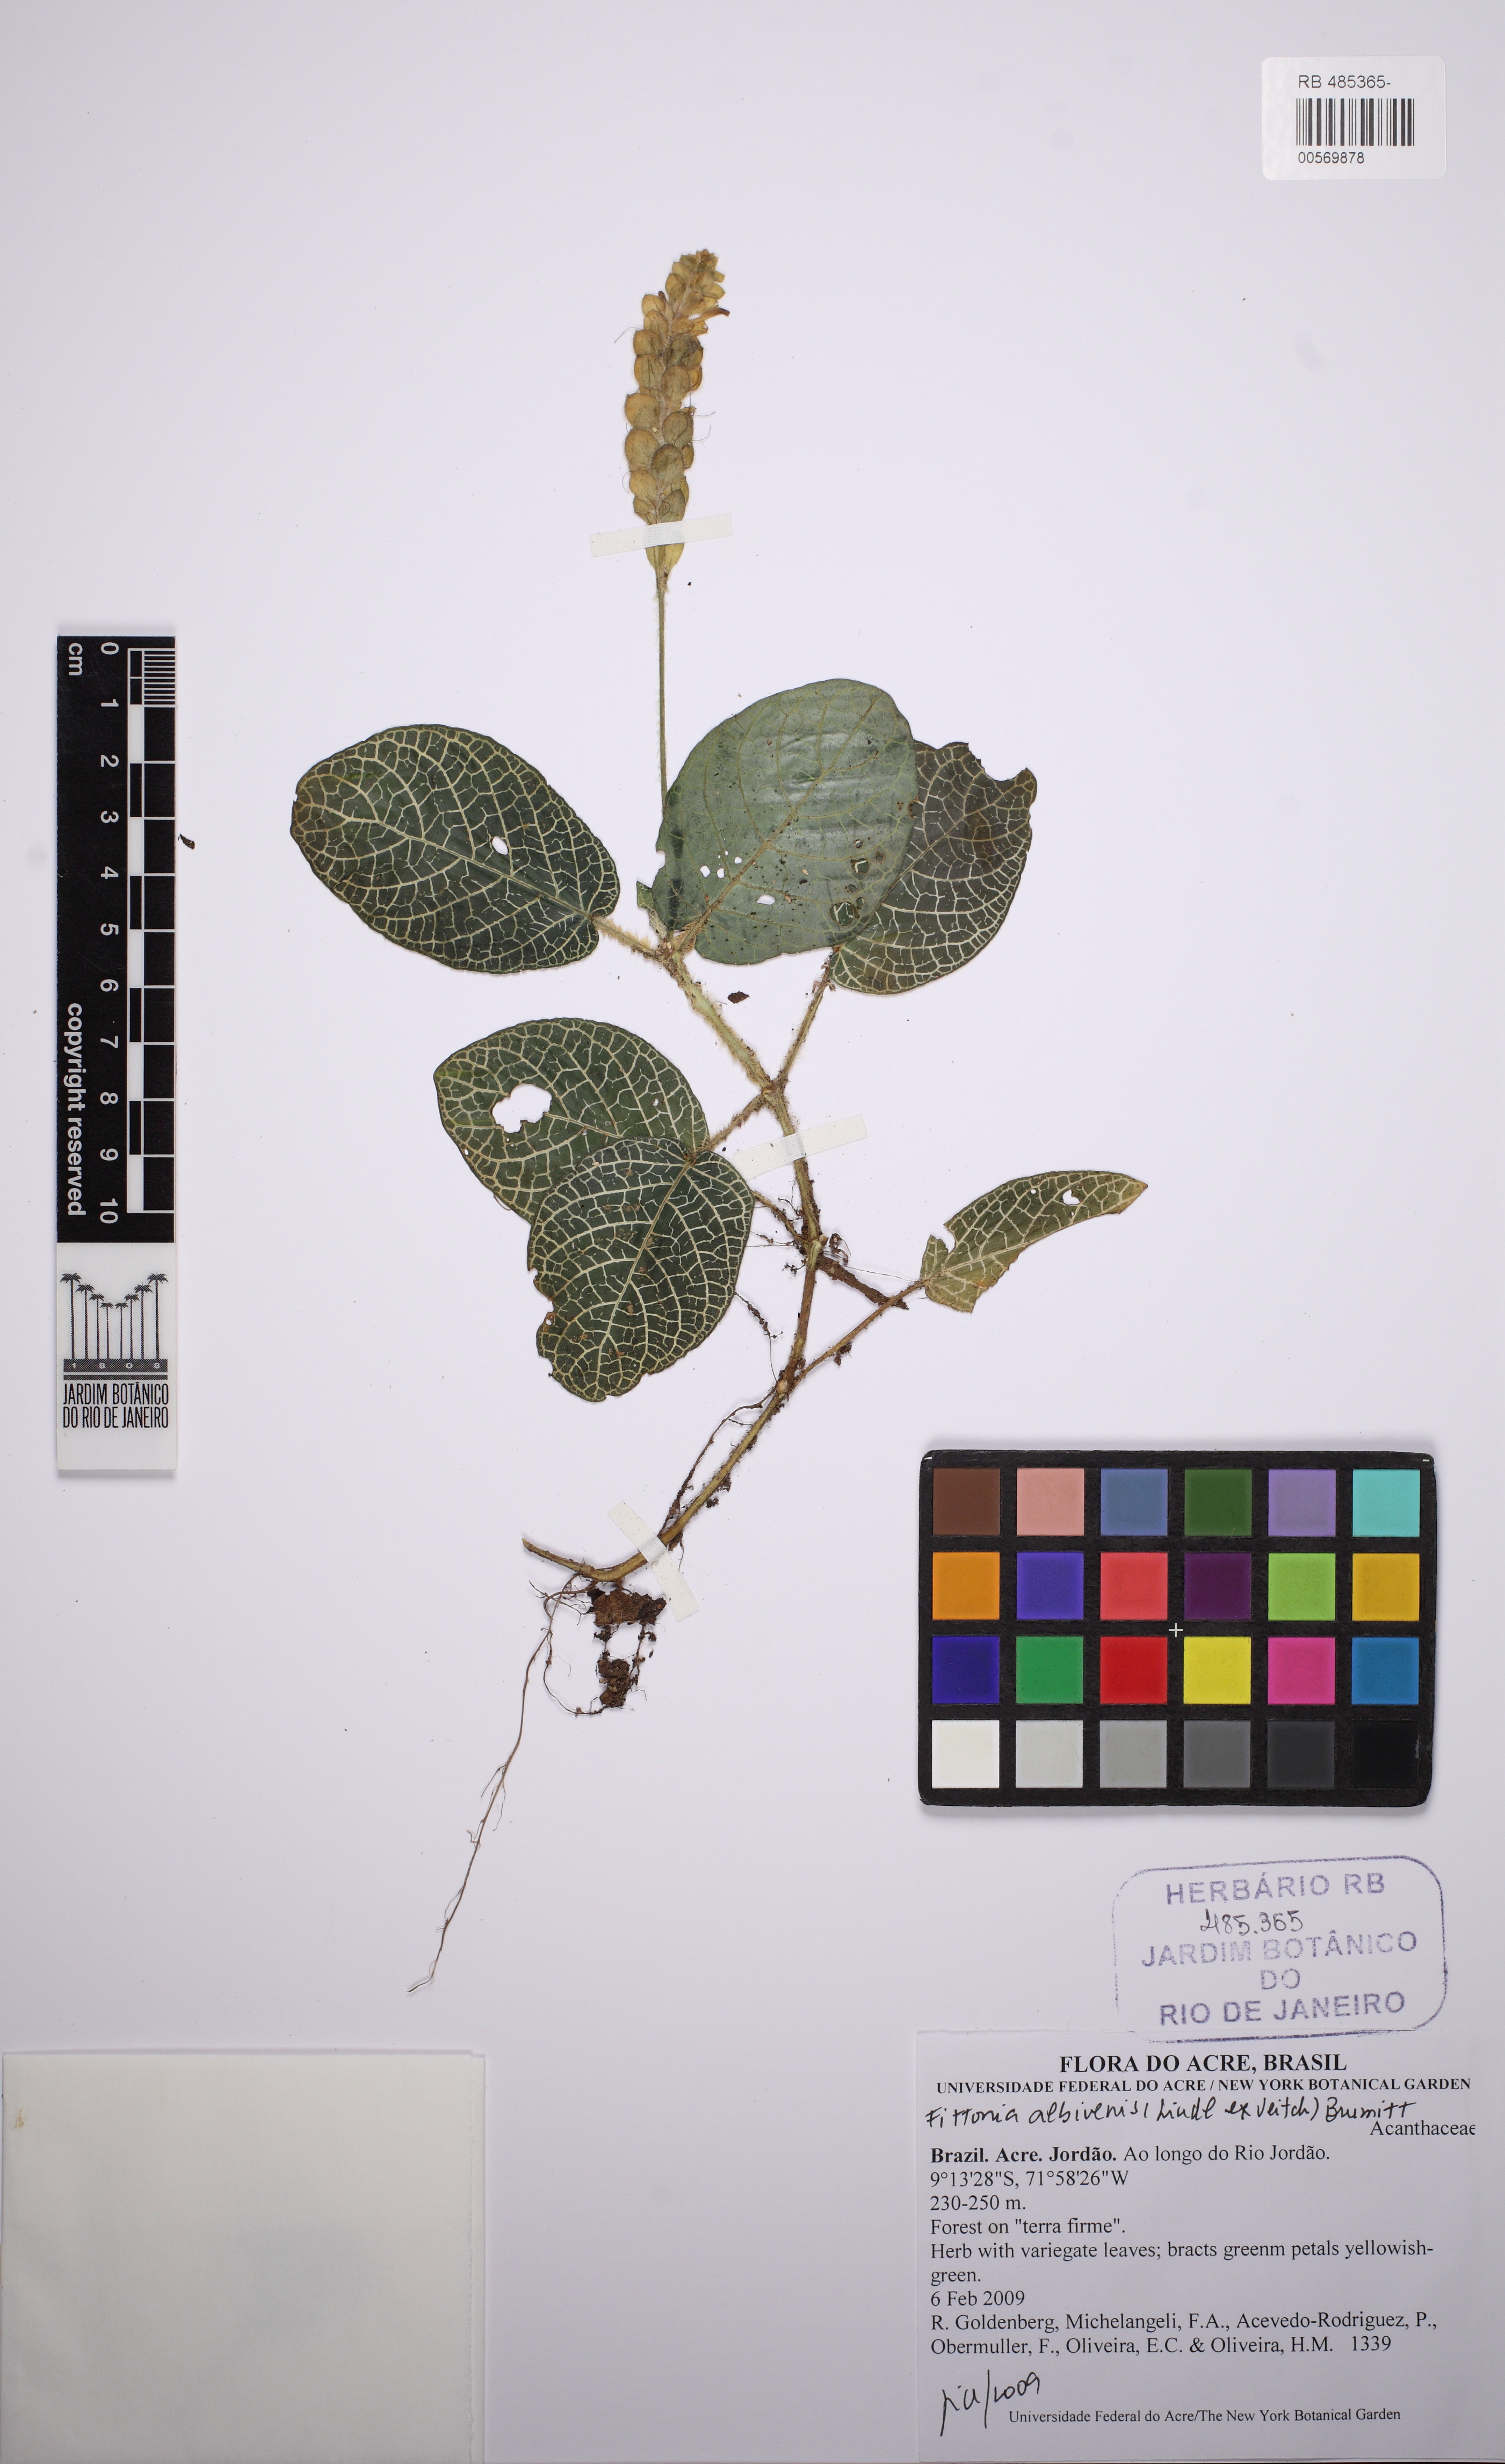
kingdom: Plantae
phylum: Tracheophyta
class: Magnoliopsida
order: Lamiales
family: Acanthaceae
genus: Fittonia
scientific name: Fittonia albivenis
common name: Mosaic-plant
